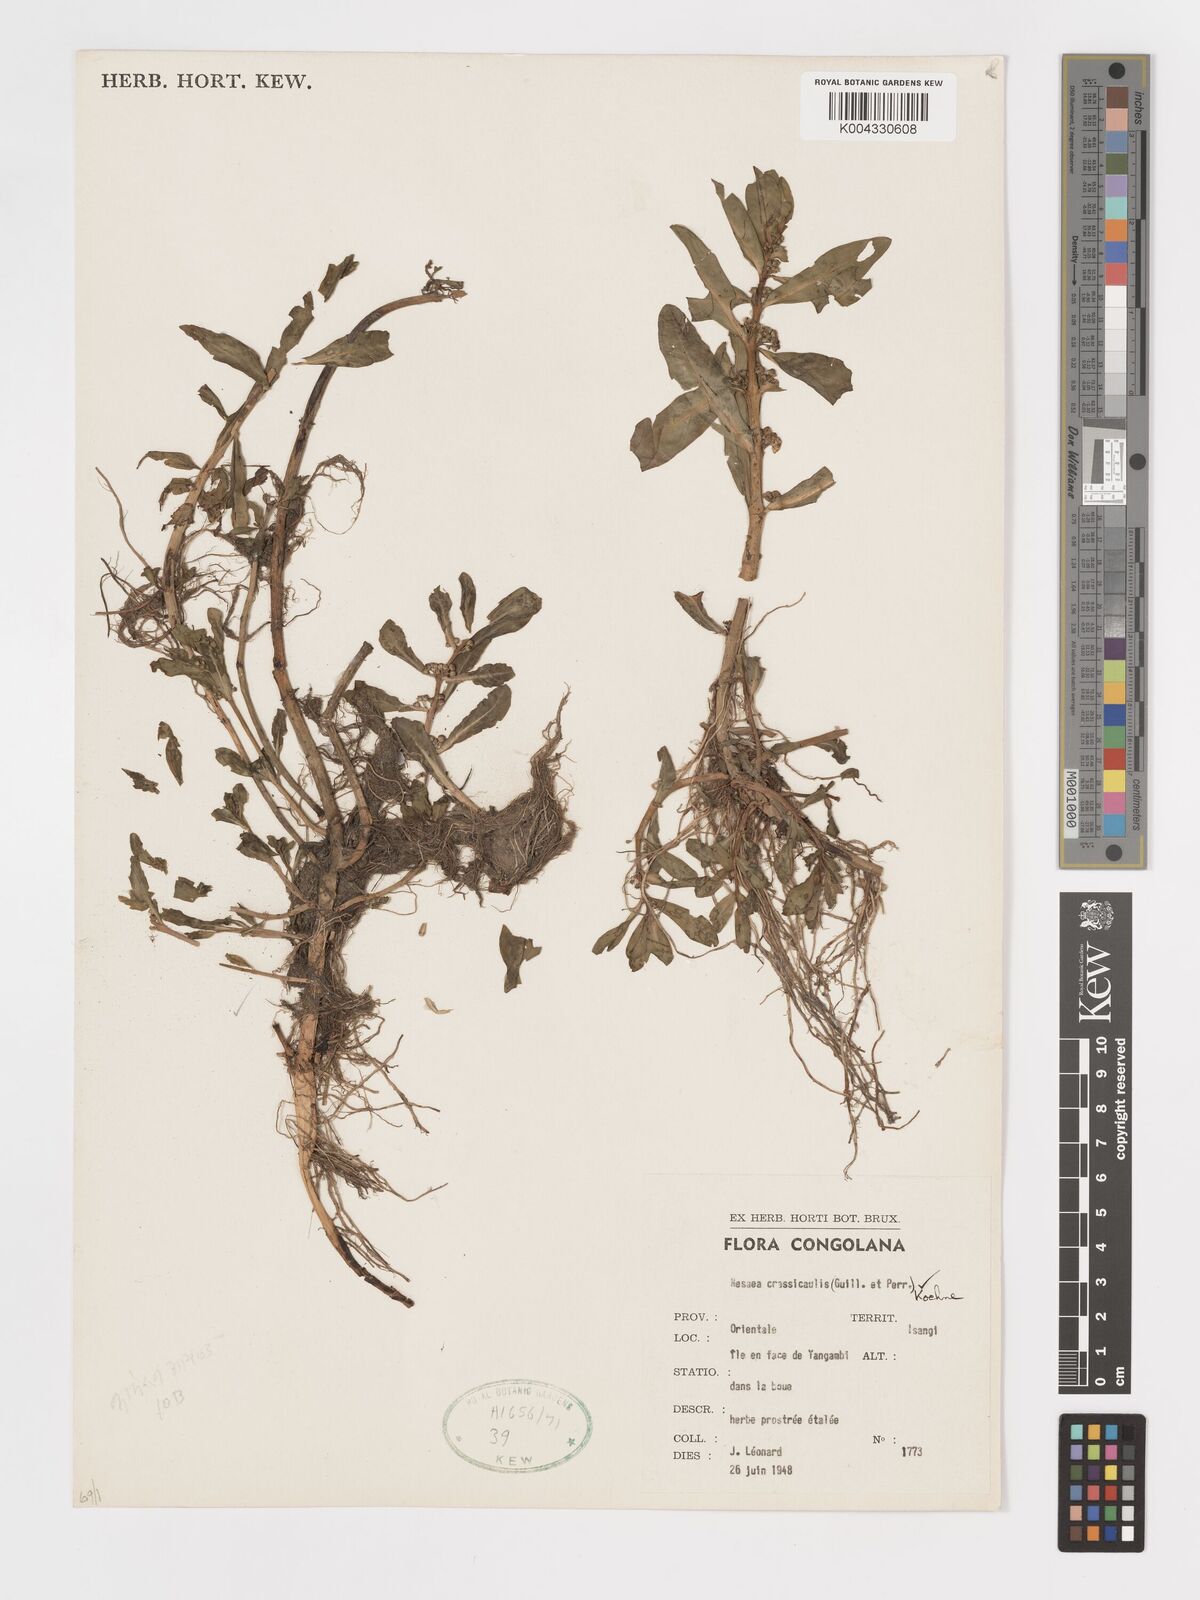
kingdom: Plantae
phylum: Tracheophyta
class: Magnoliopsida
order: Myrtales
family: Lythraceae
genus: Ammannia
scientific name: Ammannia crassicaulis
